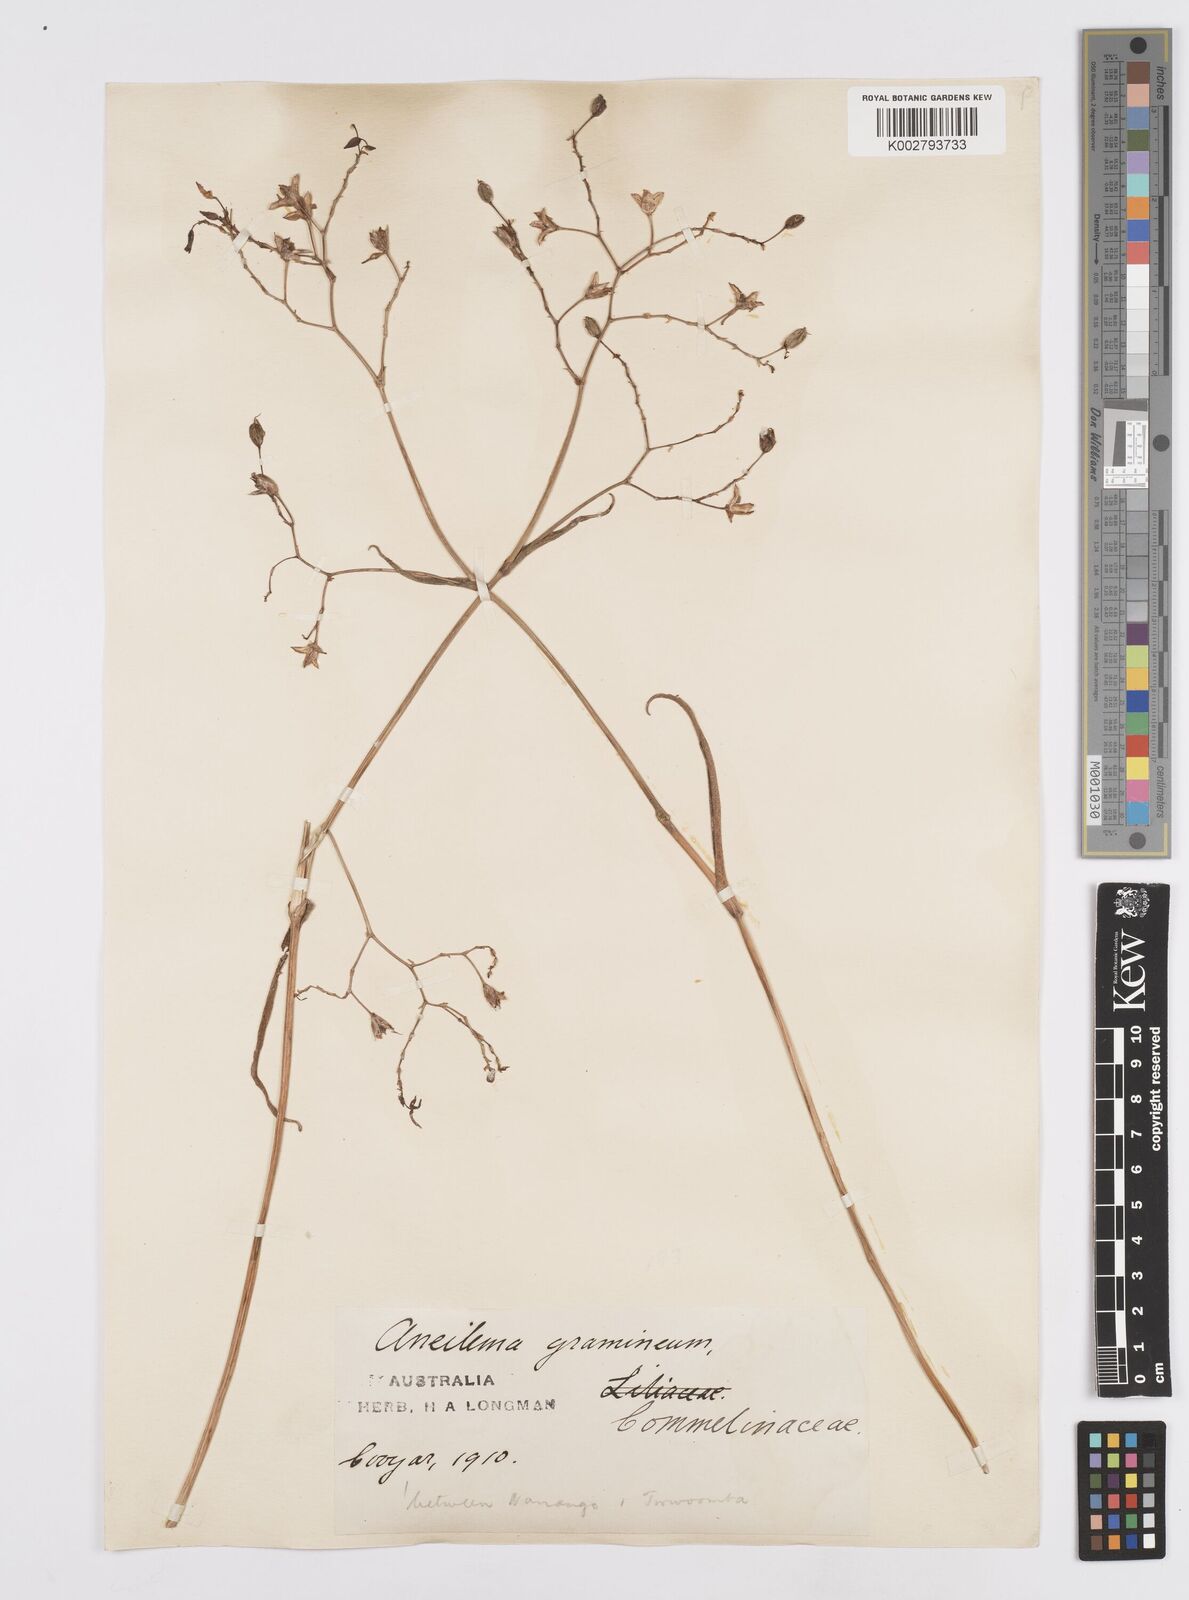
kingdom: Plantae
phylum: Tracheophyta
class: Liliopsida
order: Commelinales
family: Commelinaceae
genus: Murdannia
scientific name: Murdannia graminea
